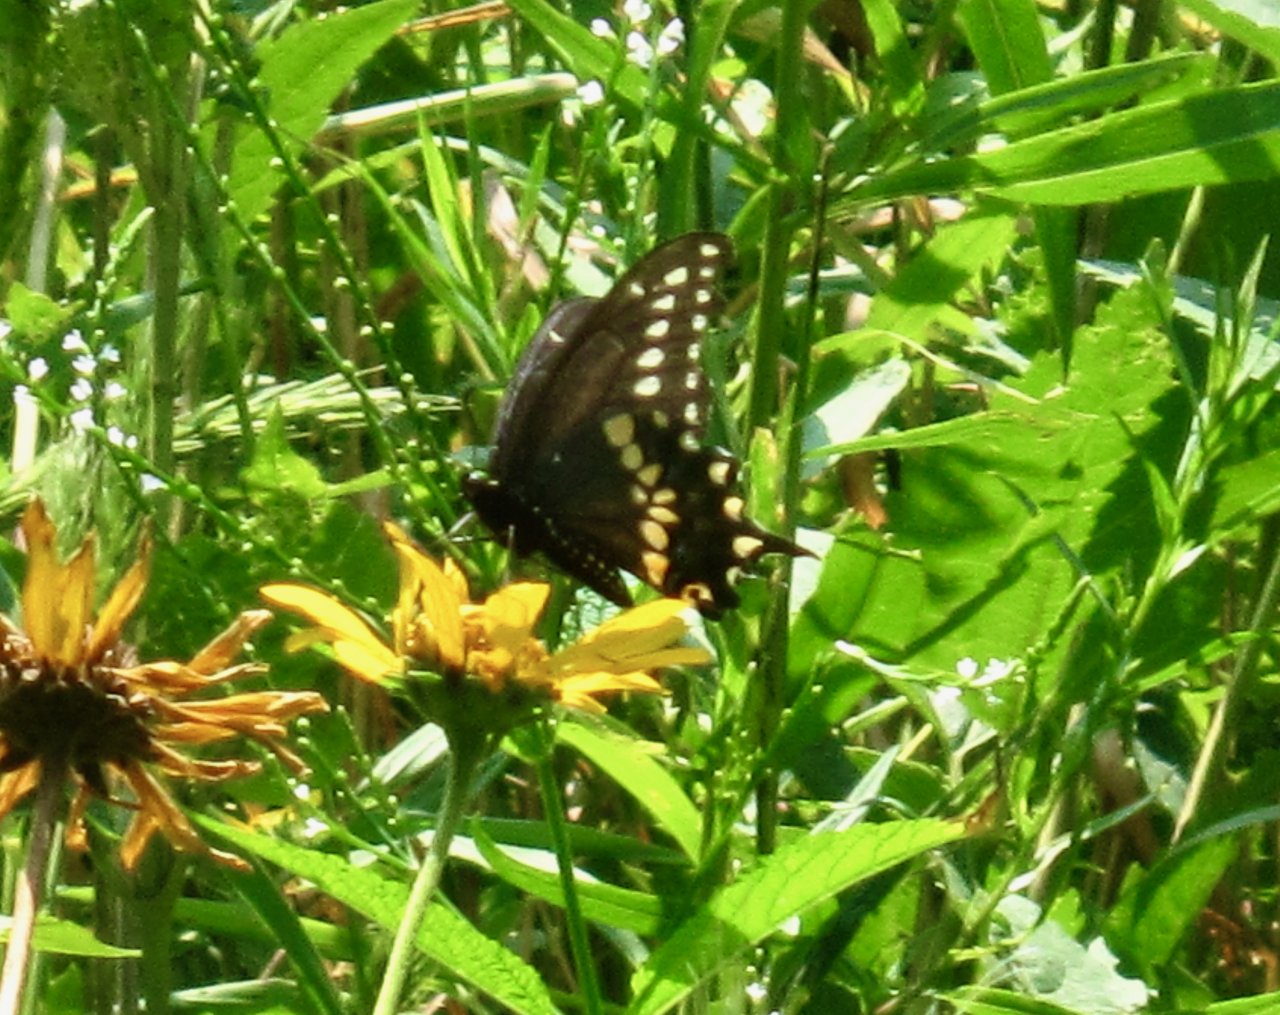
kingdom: Animalia
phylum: Arthropoda
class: Insecta
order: Lepidoptera
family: Papilionidae
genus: Papilio
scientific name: Papilio polyxenes
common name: Black Swallowtail
